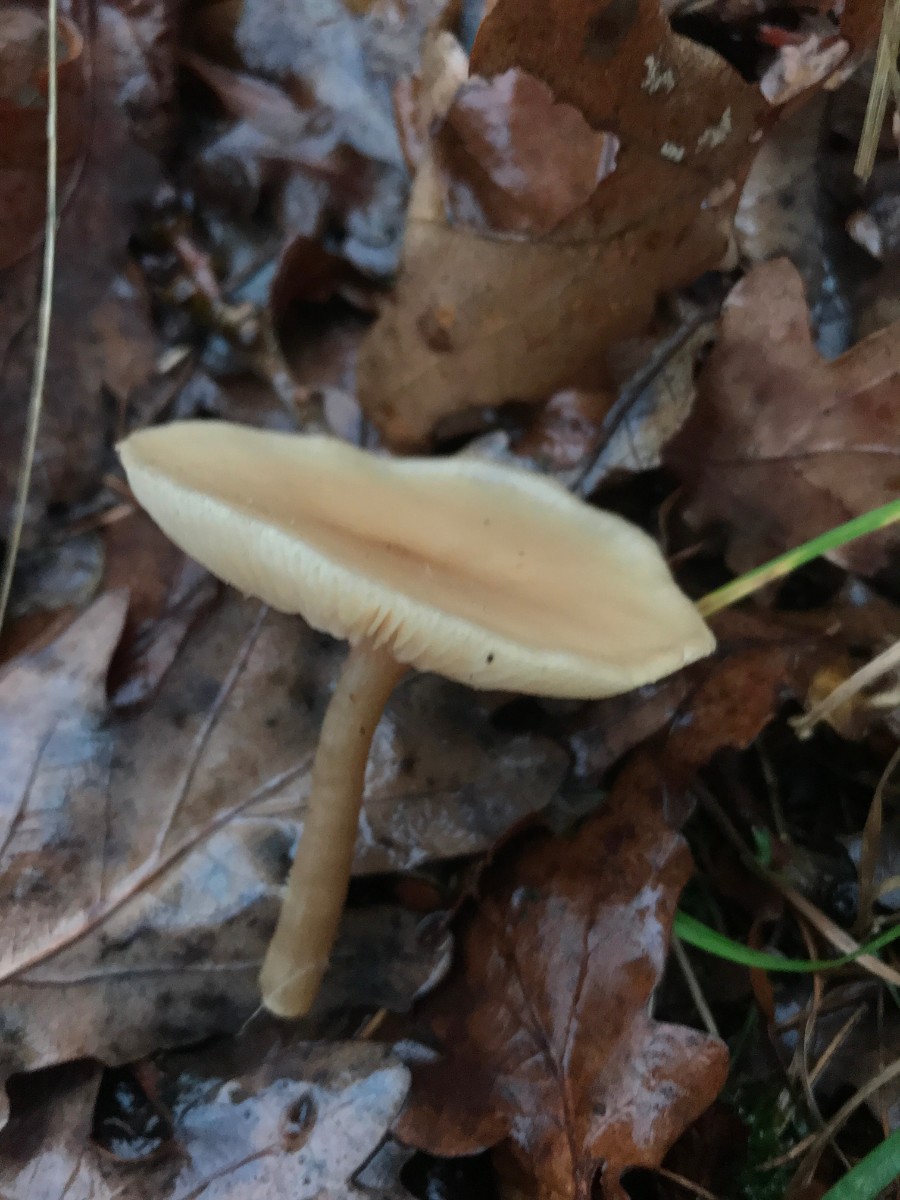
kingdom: Fungi
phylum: Basidiomycota
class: Agaricomycetes
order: Agaricales
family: Tricholomataceae
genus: Clitocybe
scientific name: Clitocybe fragrans
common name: vellugtende tragthat
